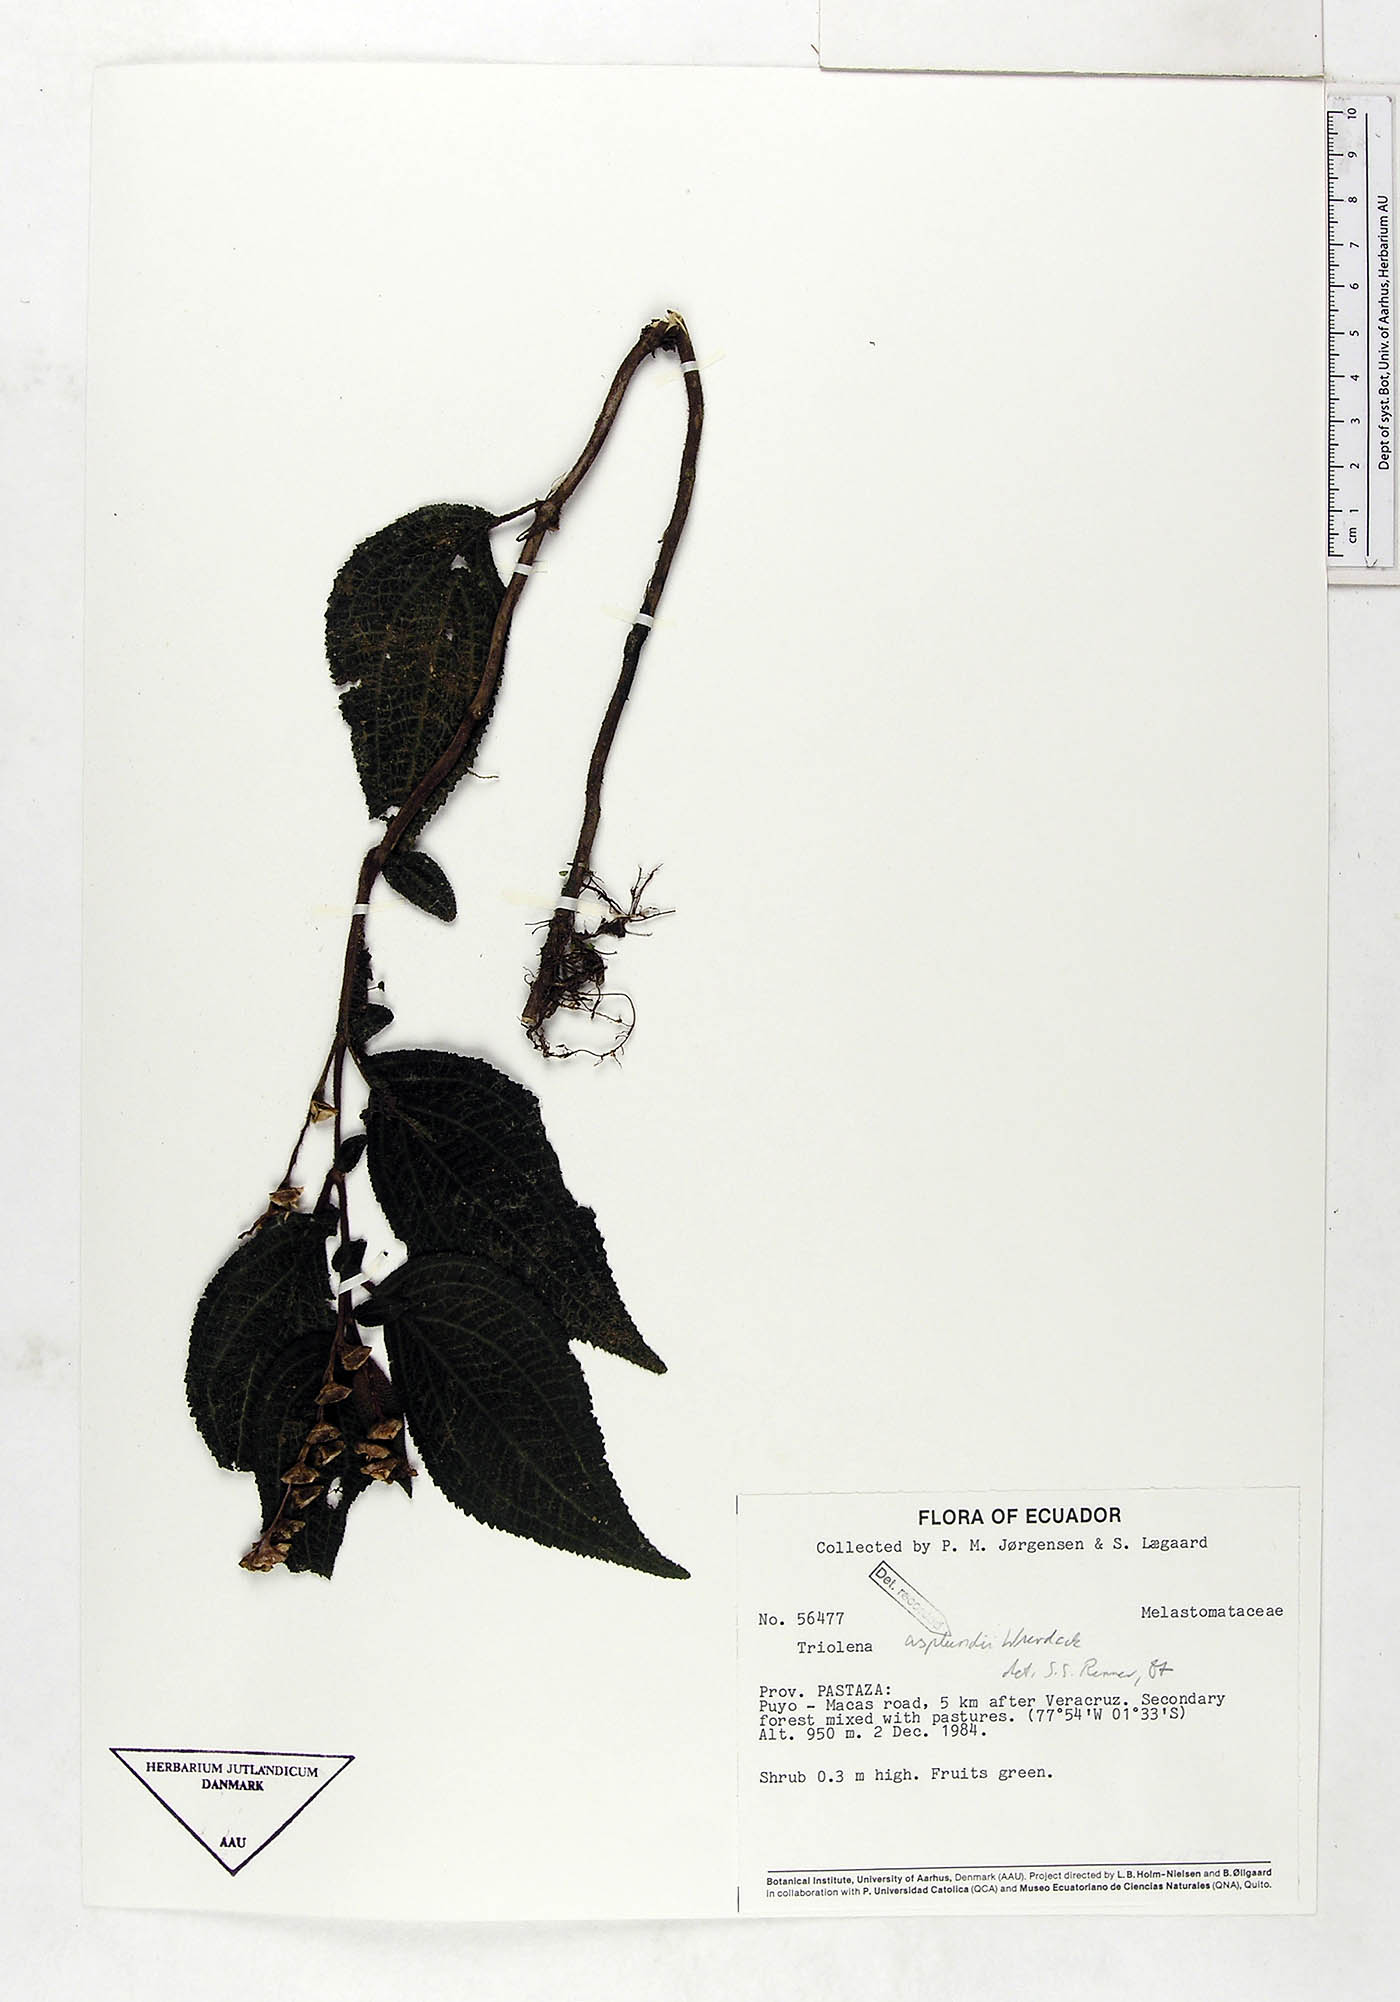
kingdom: Plantae
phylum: Tracheophyta
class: Magnoliopsida
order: Myrtales
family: Melastomataceae
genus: Triolena
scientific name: Triolena asplundii
